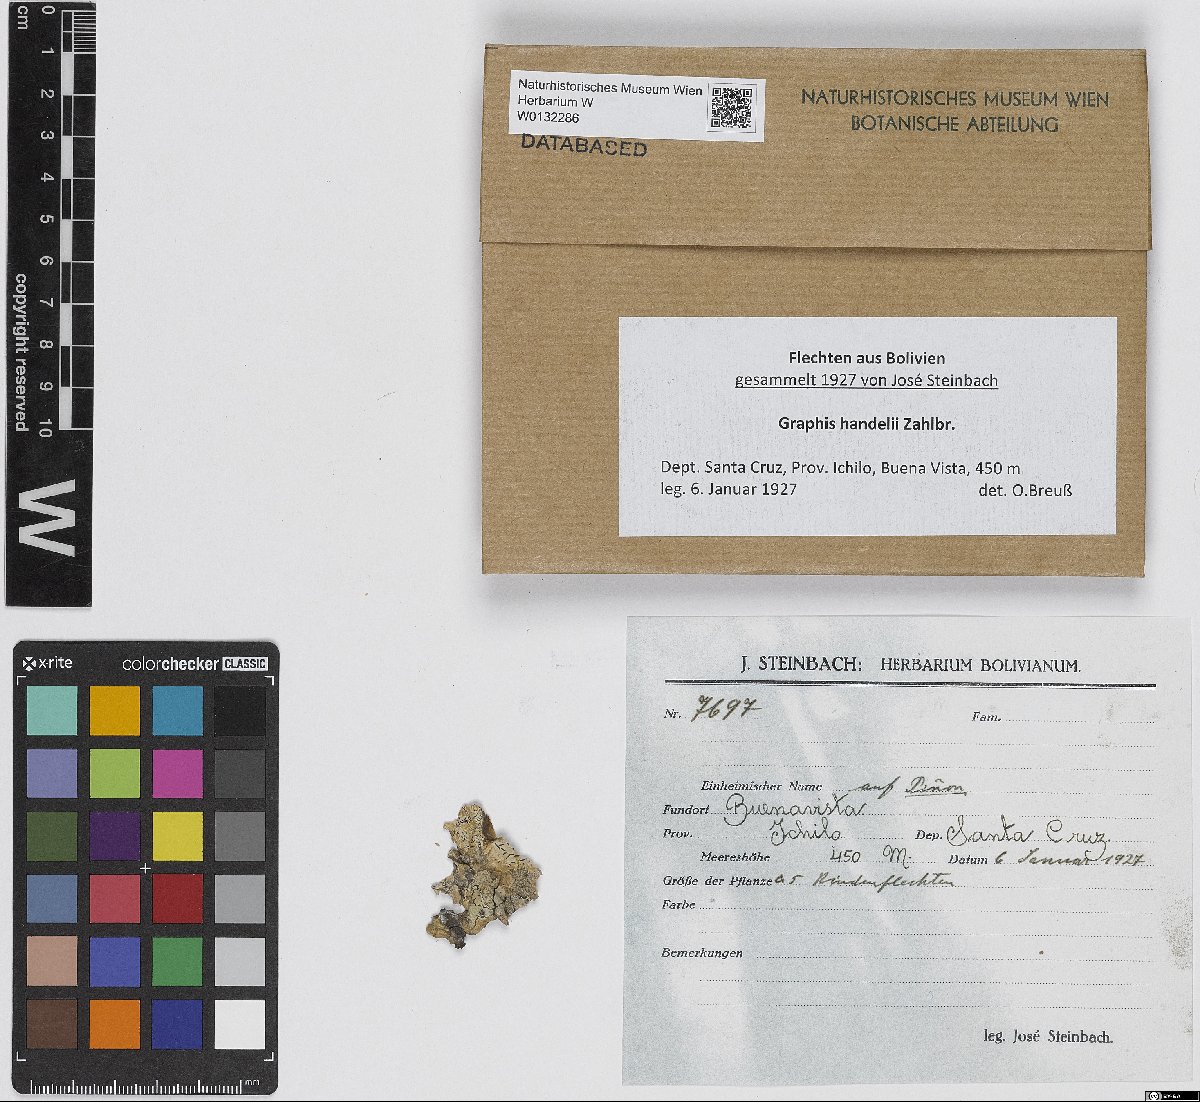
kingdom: Fungi
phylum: Ascomycota
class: Lecanoromycetes
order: Ostropales
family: Graphidaceae
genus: Graphis
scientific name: Graphis handelii
